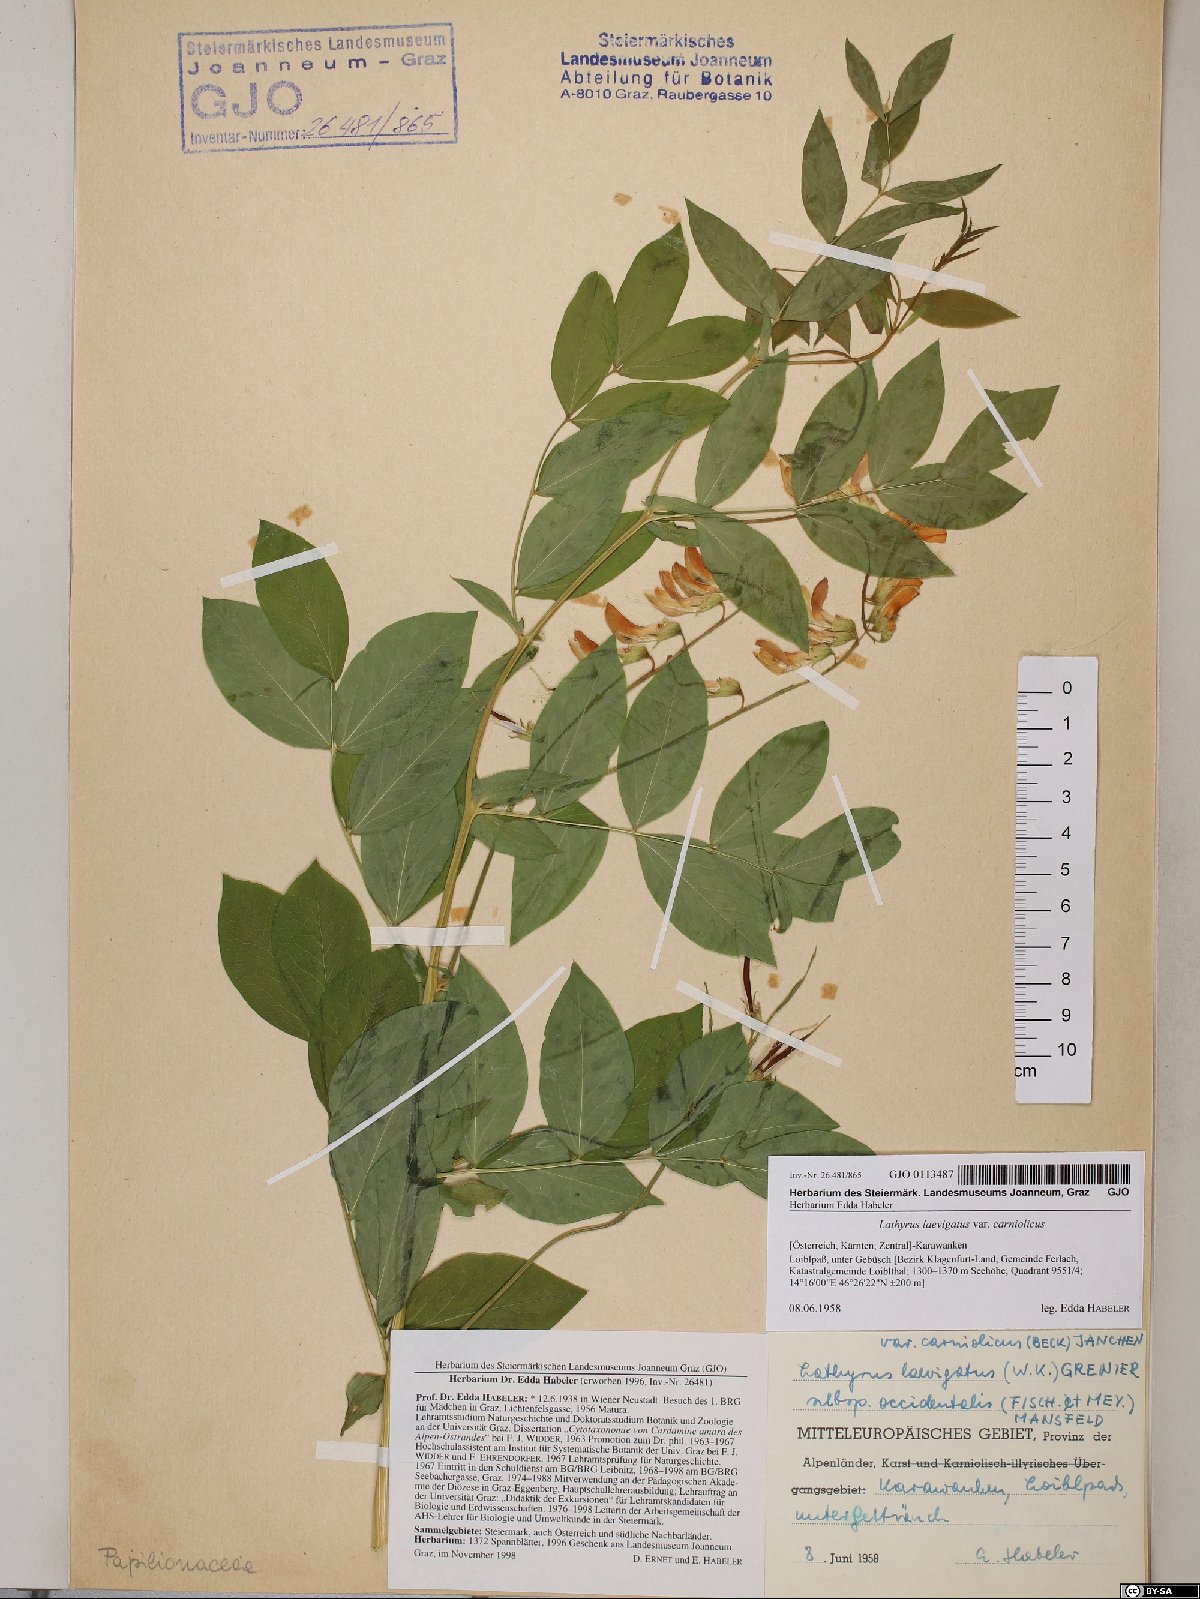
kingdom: Plantae
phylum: Tracheophyta
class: Magnoliopsida
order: Fabales
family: Fabaceae
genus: Lathyrus
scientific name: Lathyrus laevigatus
